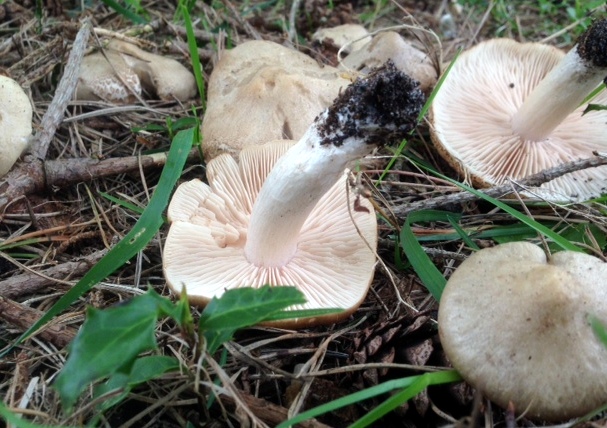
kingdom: Fungi
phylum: Basidiomycota
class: Agaricomycetes
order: Agaricales
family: Entolomataceae
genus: Entoloma
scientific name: Entoloma clypeatum
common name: flammet rødblad
